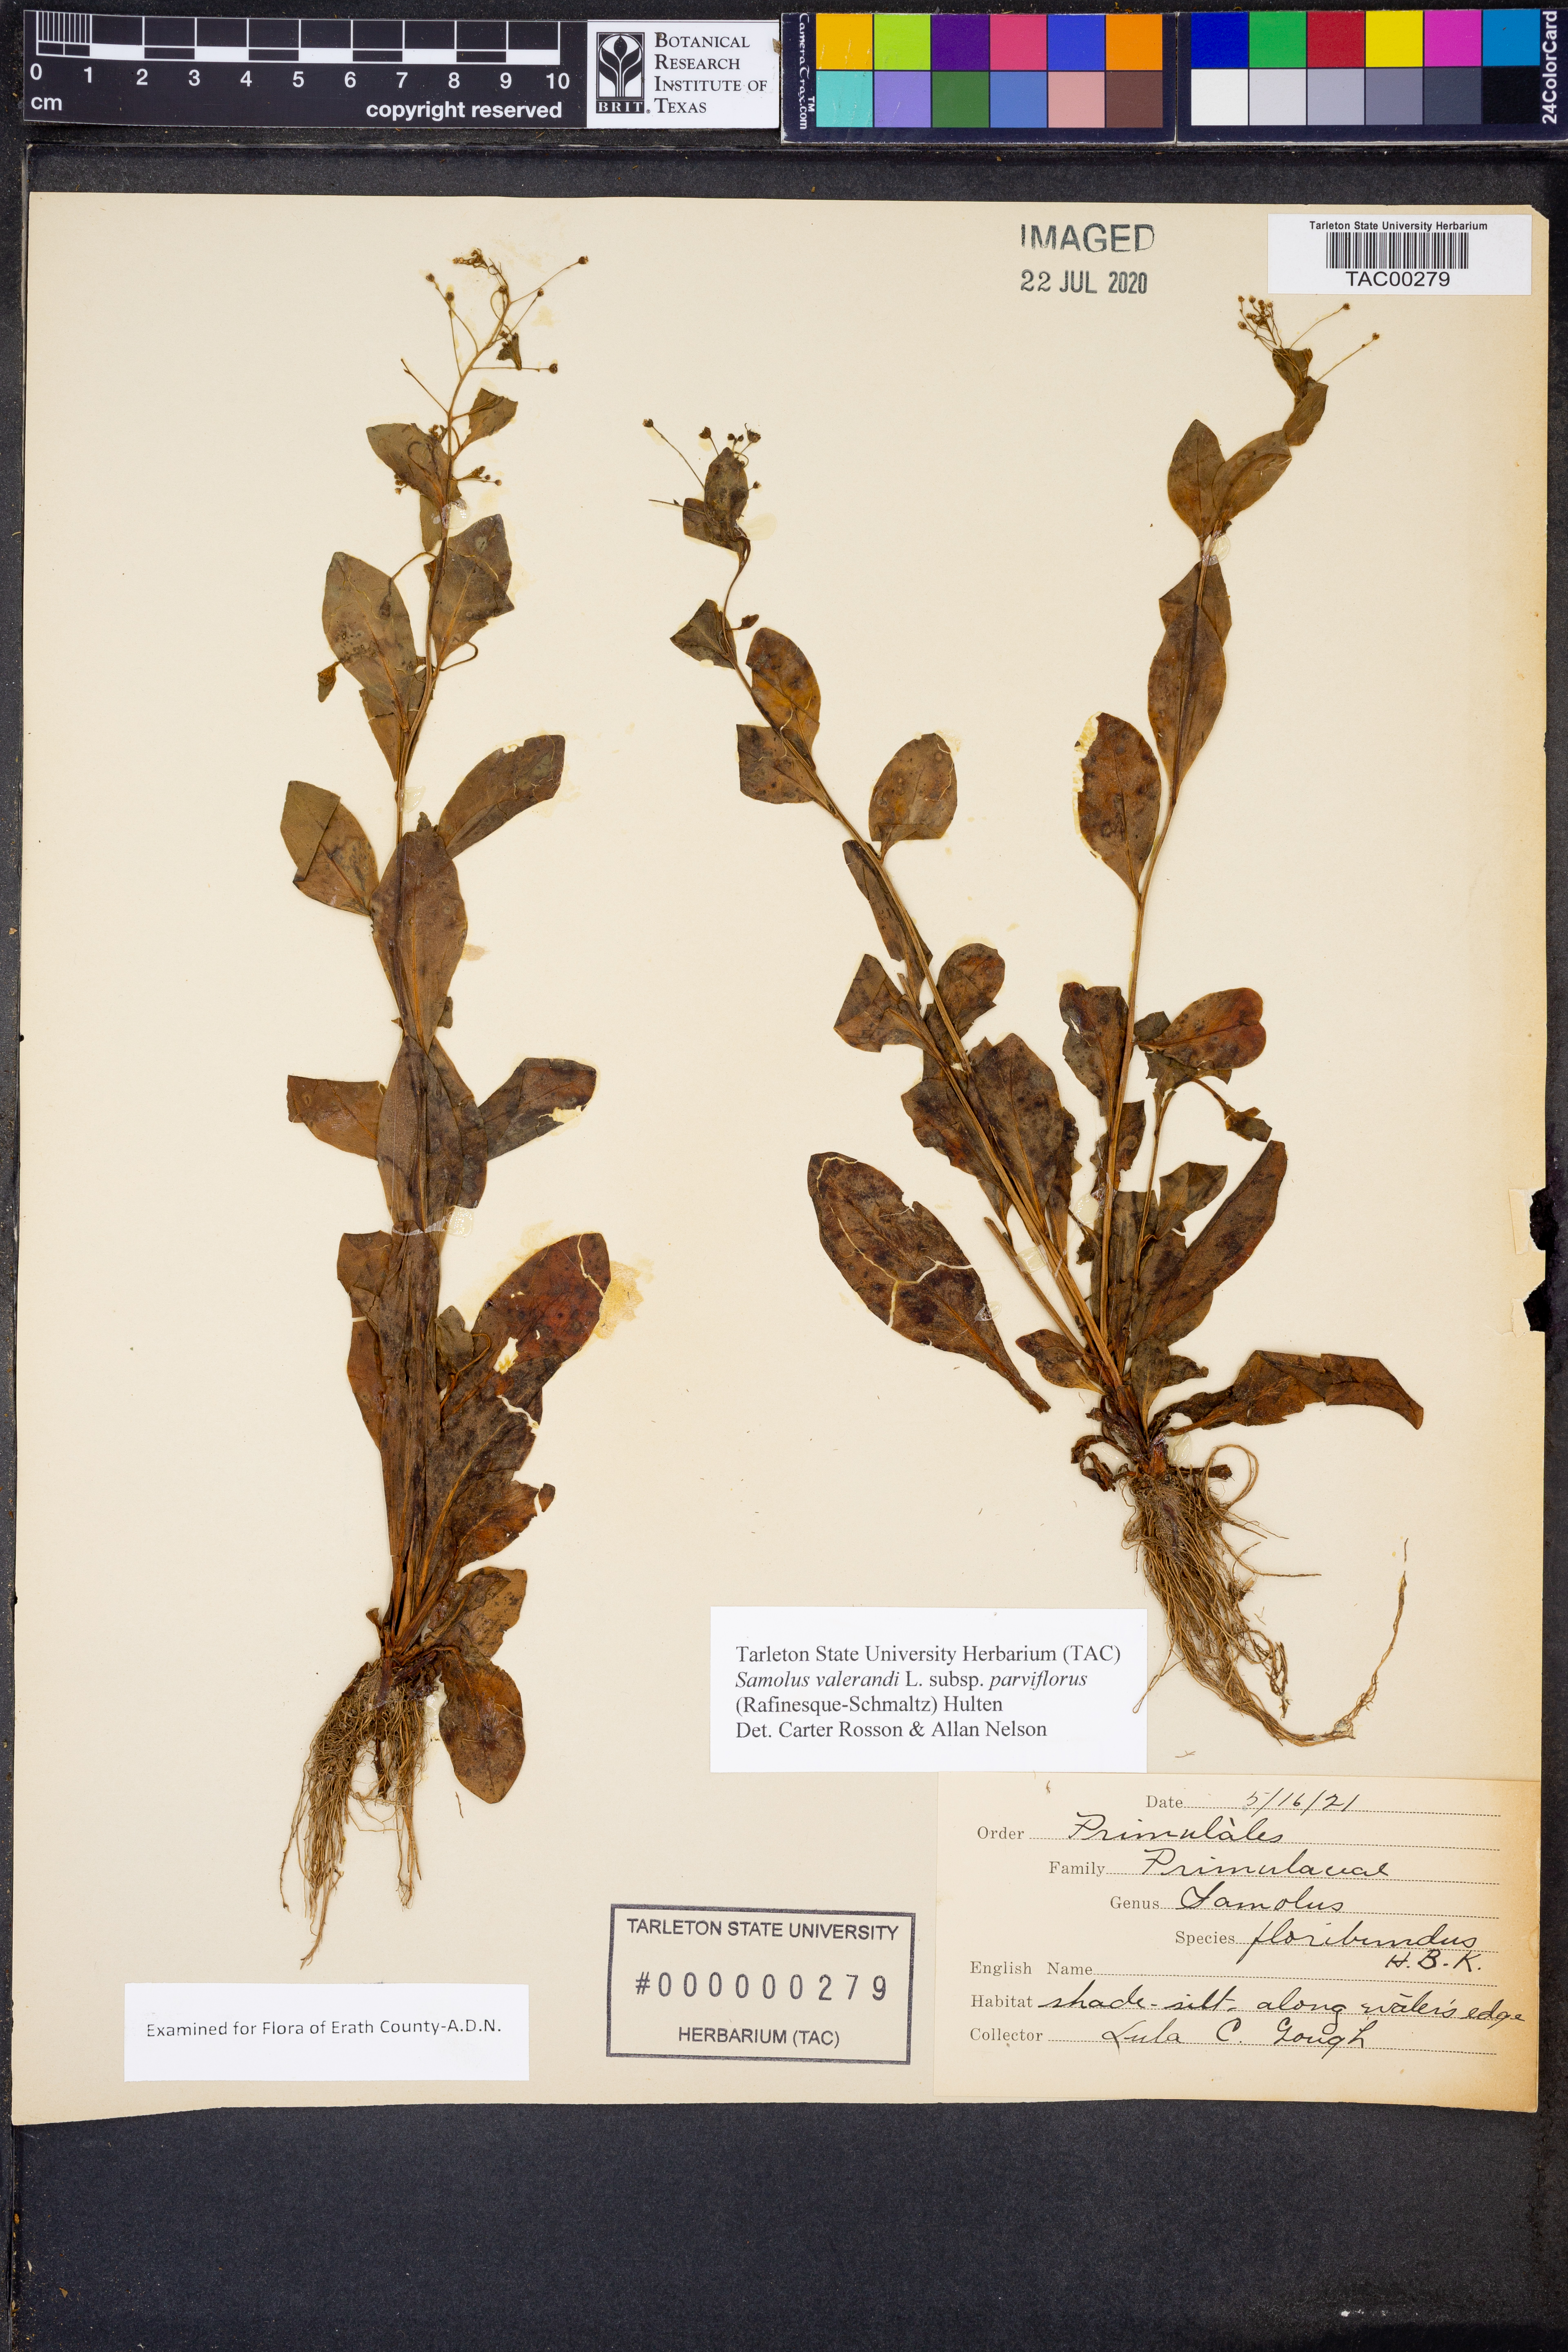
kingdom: Plantae
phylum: Tracheophyta
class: Magnoliopsida
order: Ericales
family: Primulaceae
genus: Samolus
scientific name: Samolus parviflorus
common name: False water pimpernel
